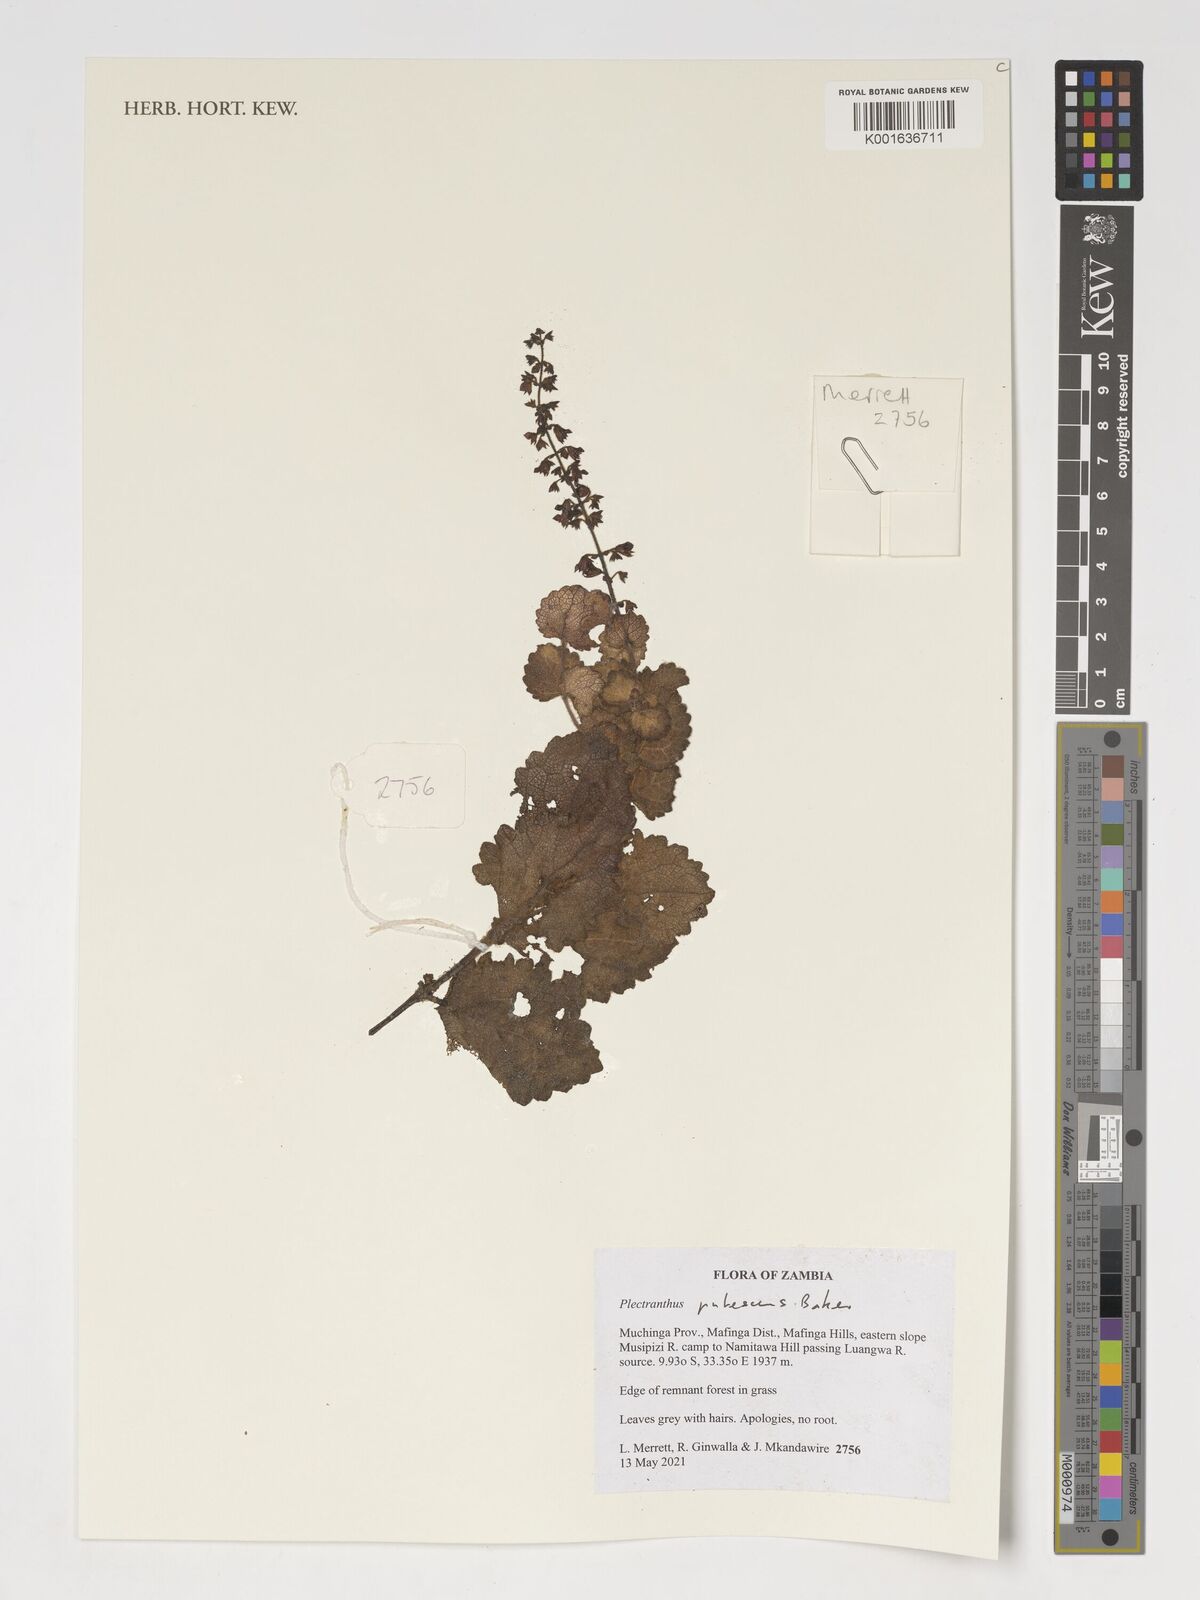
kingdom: Plantae
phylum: Tracheophyta
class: Magnoliopsida
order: Lamiales
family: Lamiaceae
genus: Equilabium
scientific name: Equilabium pubescens
